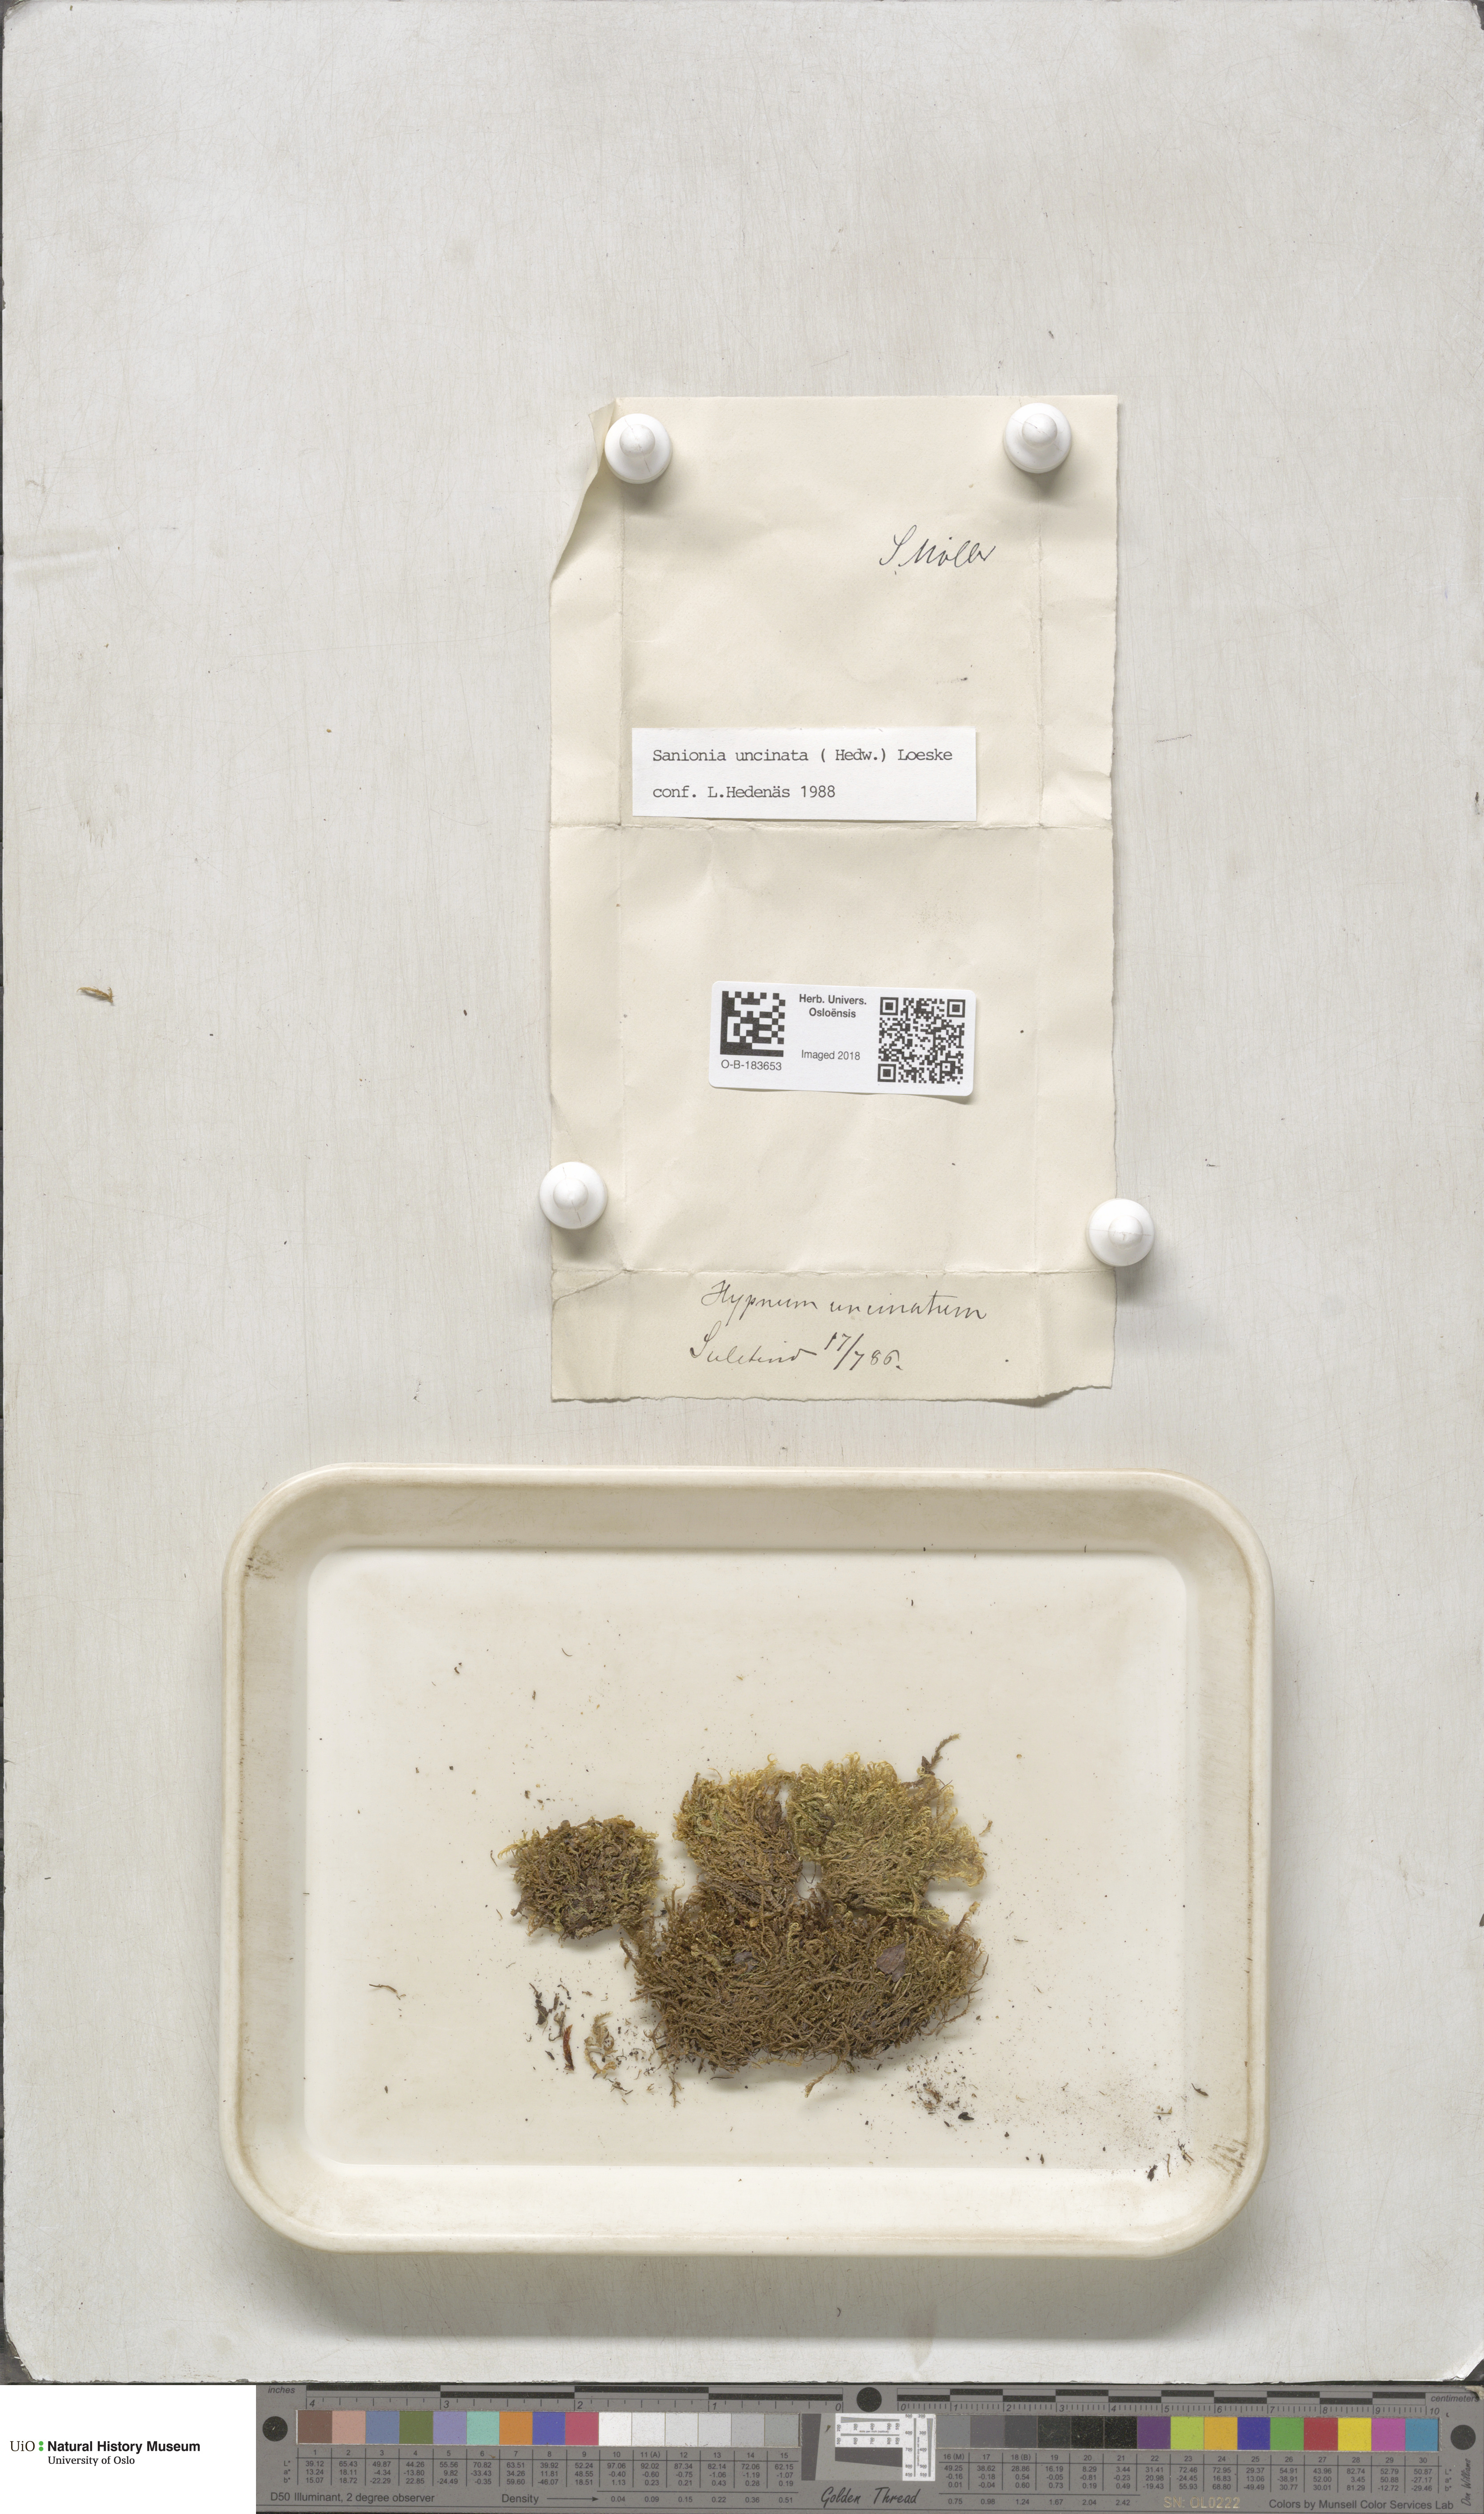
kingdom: Plantae
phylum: Bryophyta
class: Bryopsida
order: Hypnales
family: Scorpidiaceae
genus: Sanionia
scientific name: Sanionia uncinata
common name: Sickle moss
